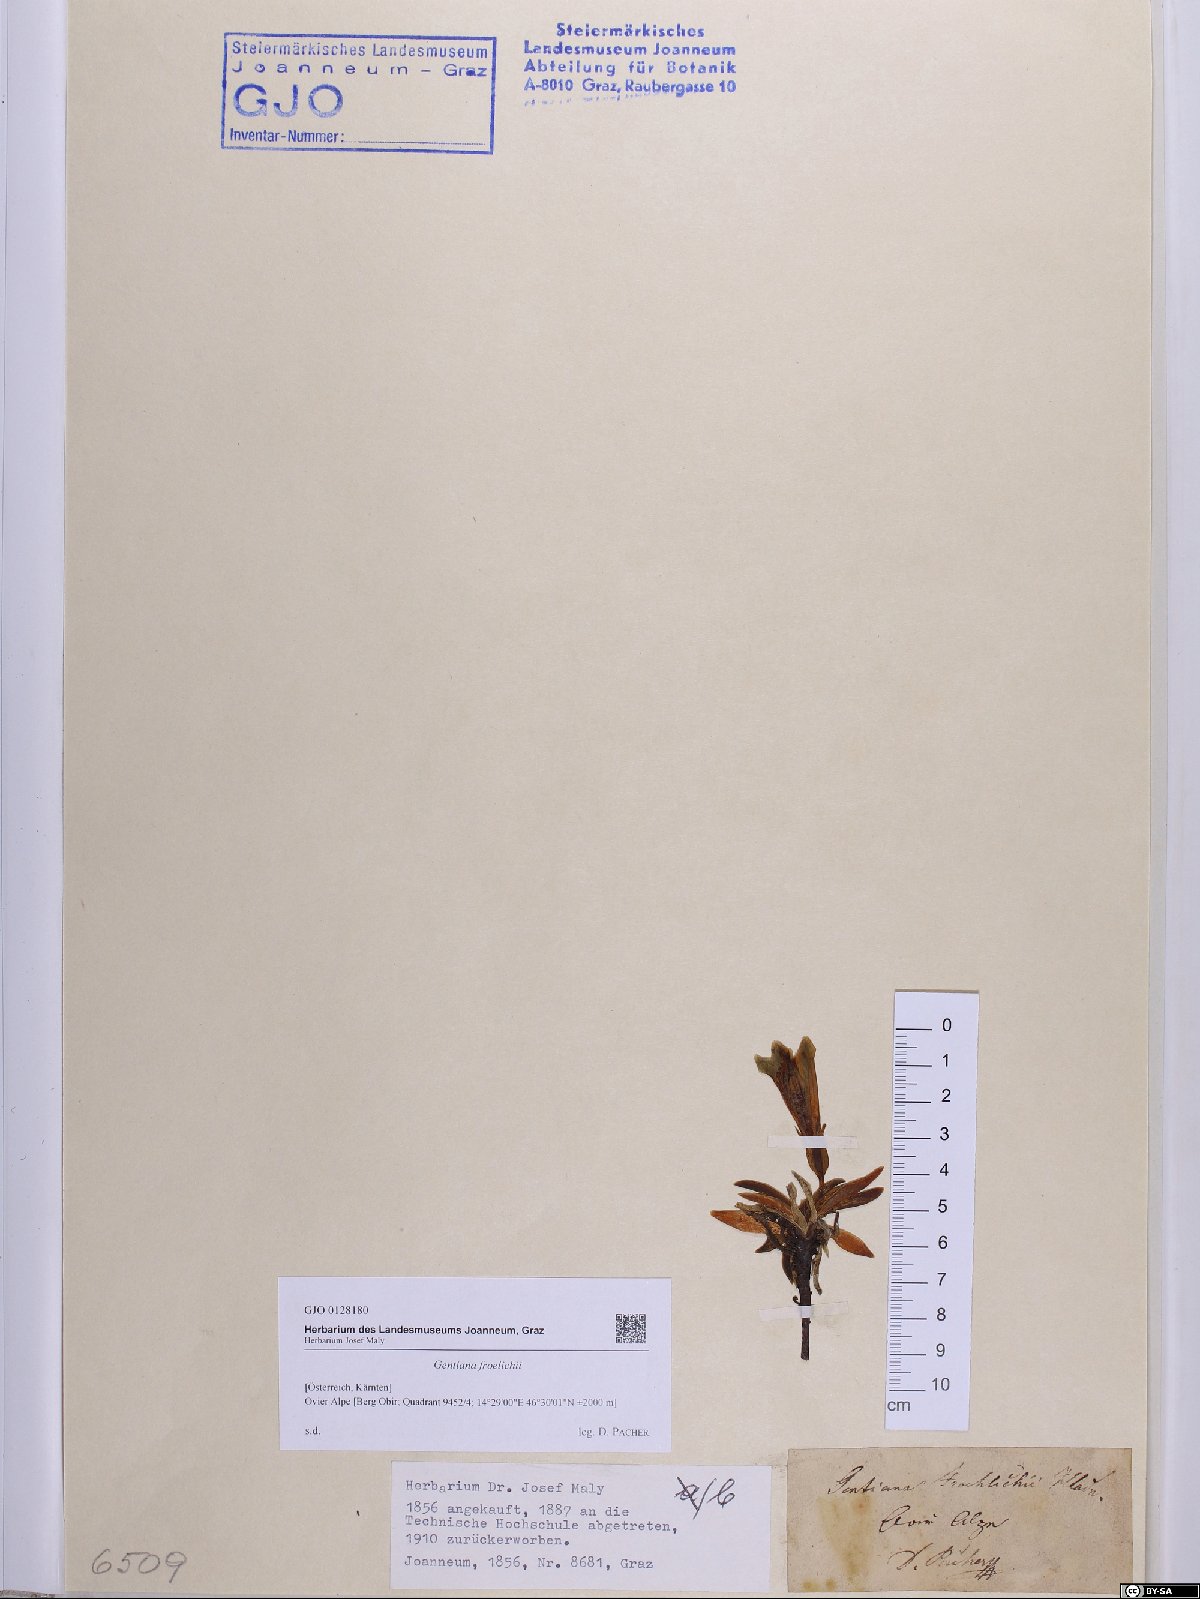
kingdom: Plantae
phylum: Tracheophyta
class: Magnoliopsida
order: Gentianales
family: Gentianaceae
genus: Gentiana
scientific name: Gentiana froelichii
